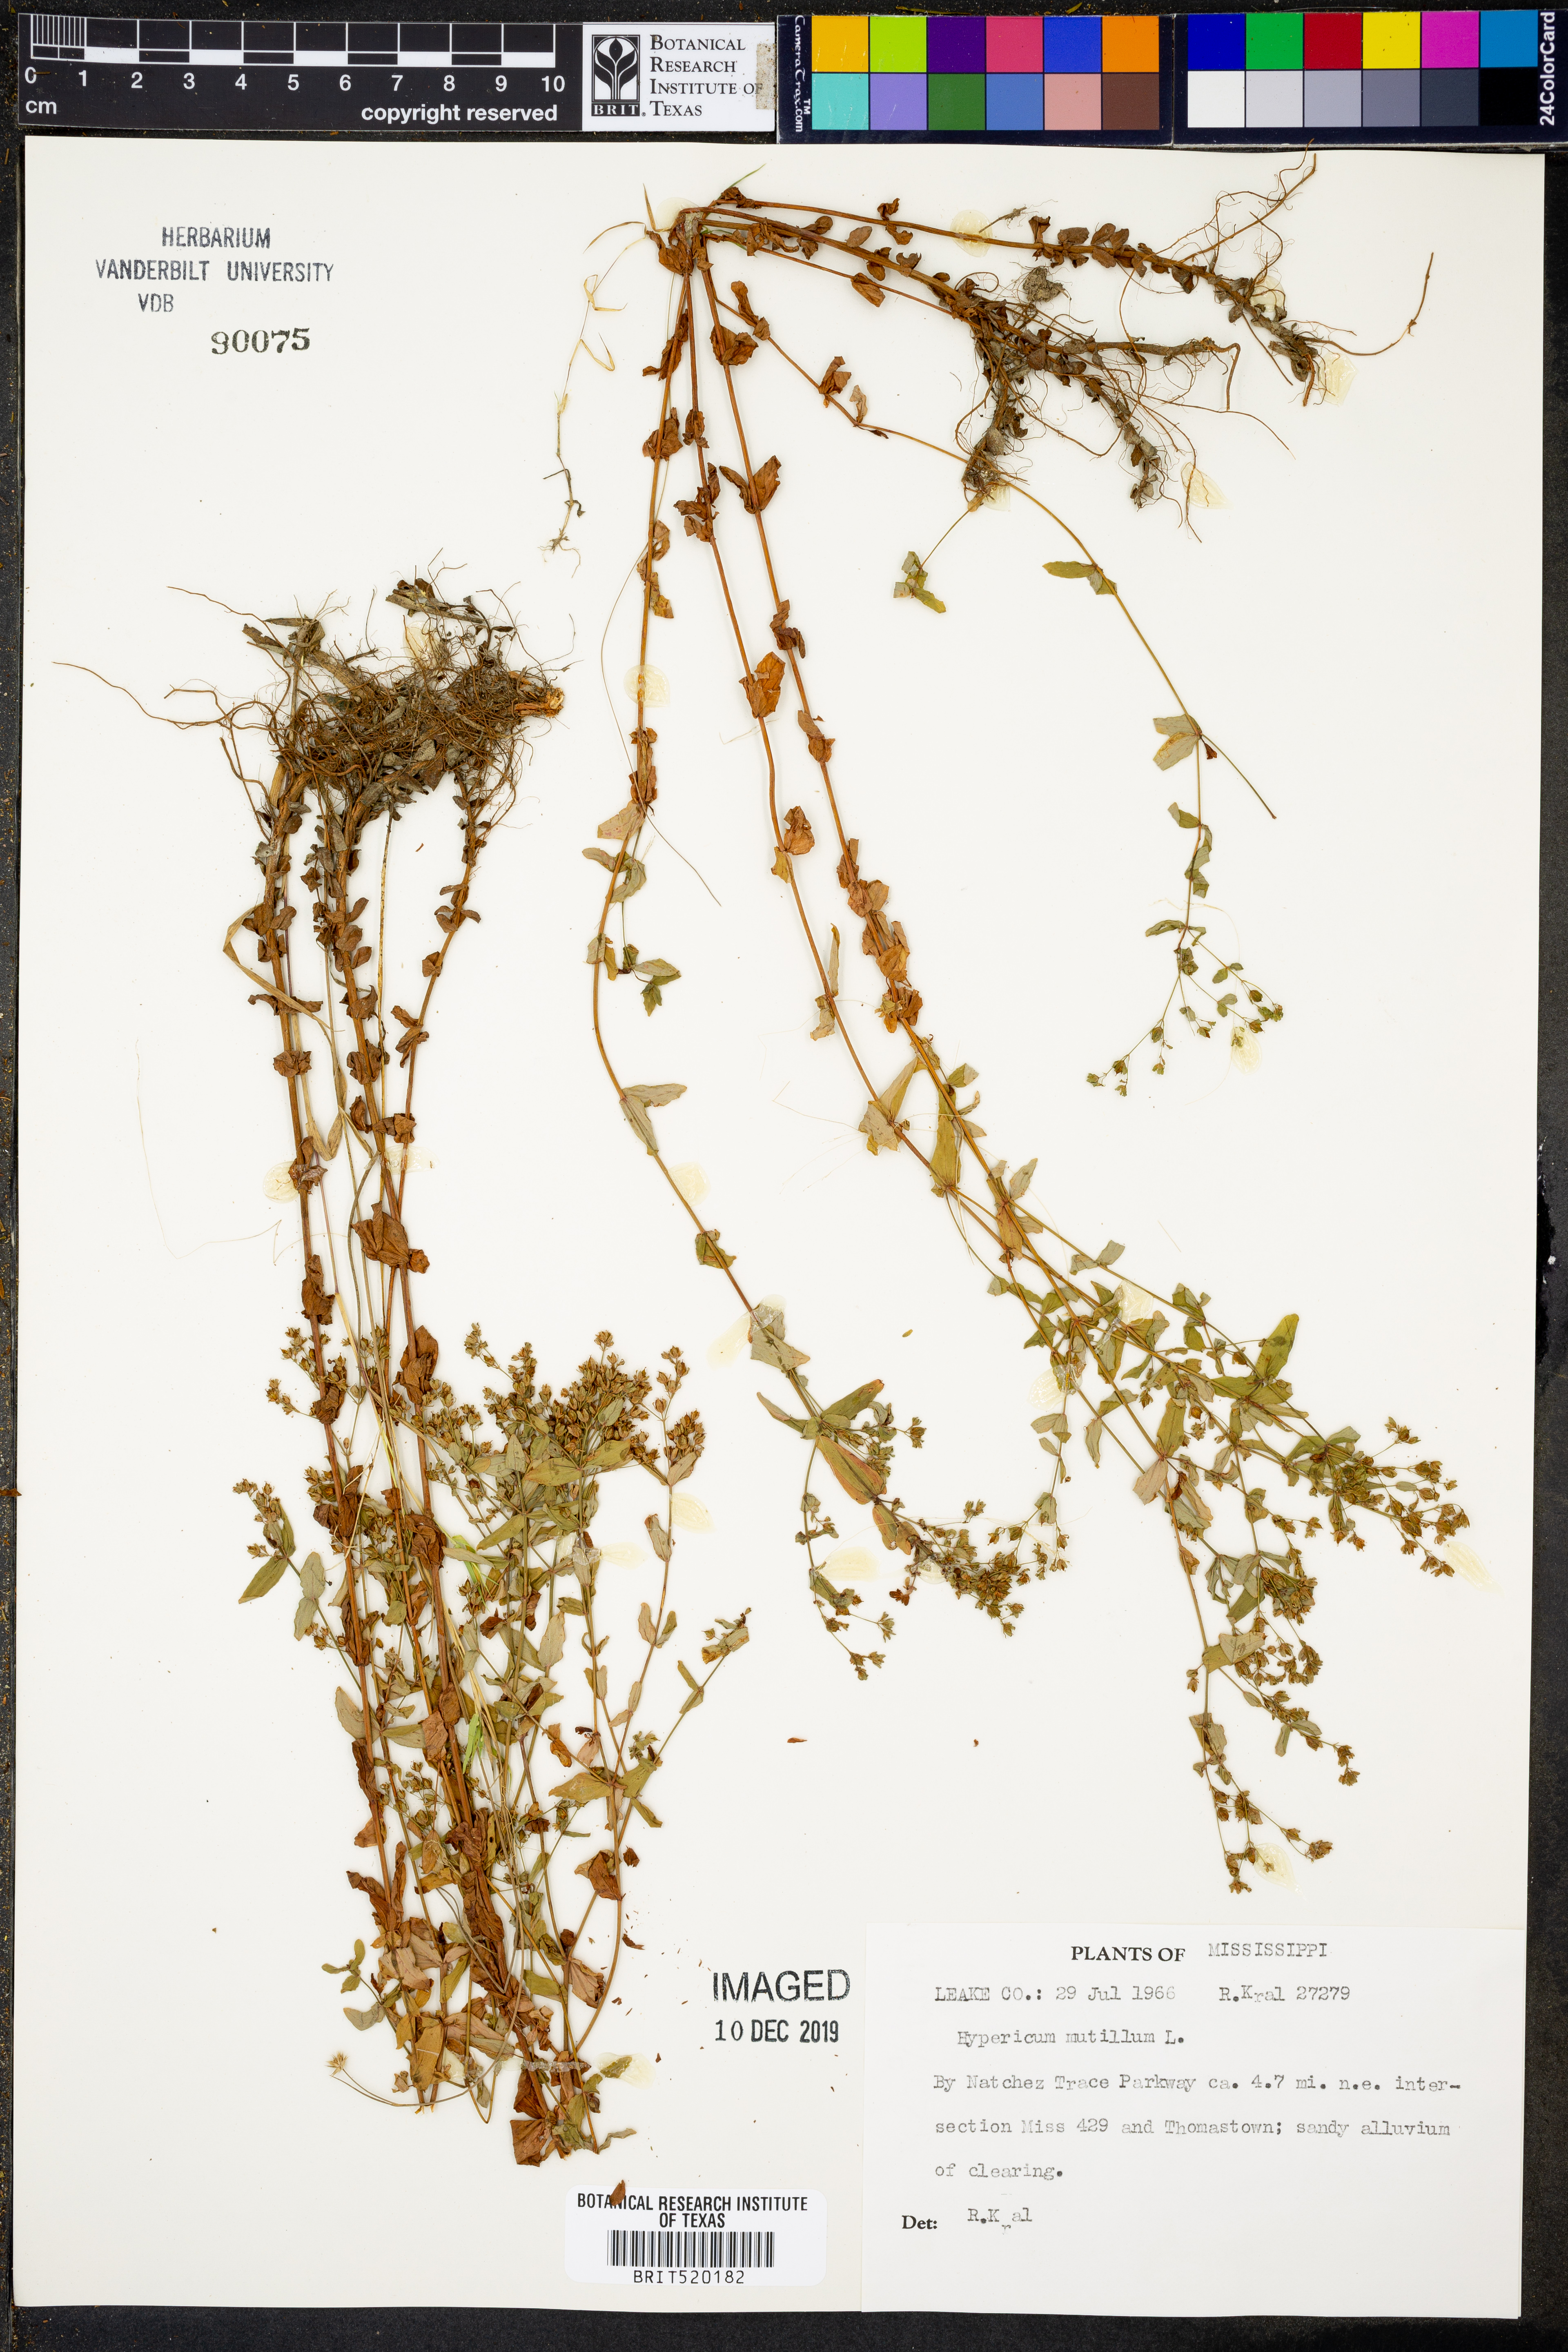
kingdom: Plantae
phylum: Tracheophyta
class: Magnoliopsida
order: Malpighiales
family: Hypericaceae
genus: Hypericum
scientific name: Hypericum mutilum
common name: Dwarf st. john's-wort
